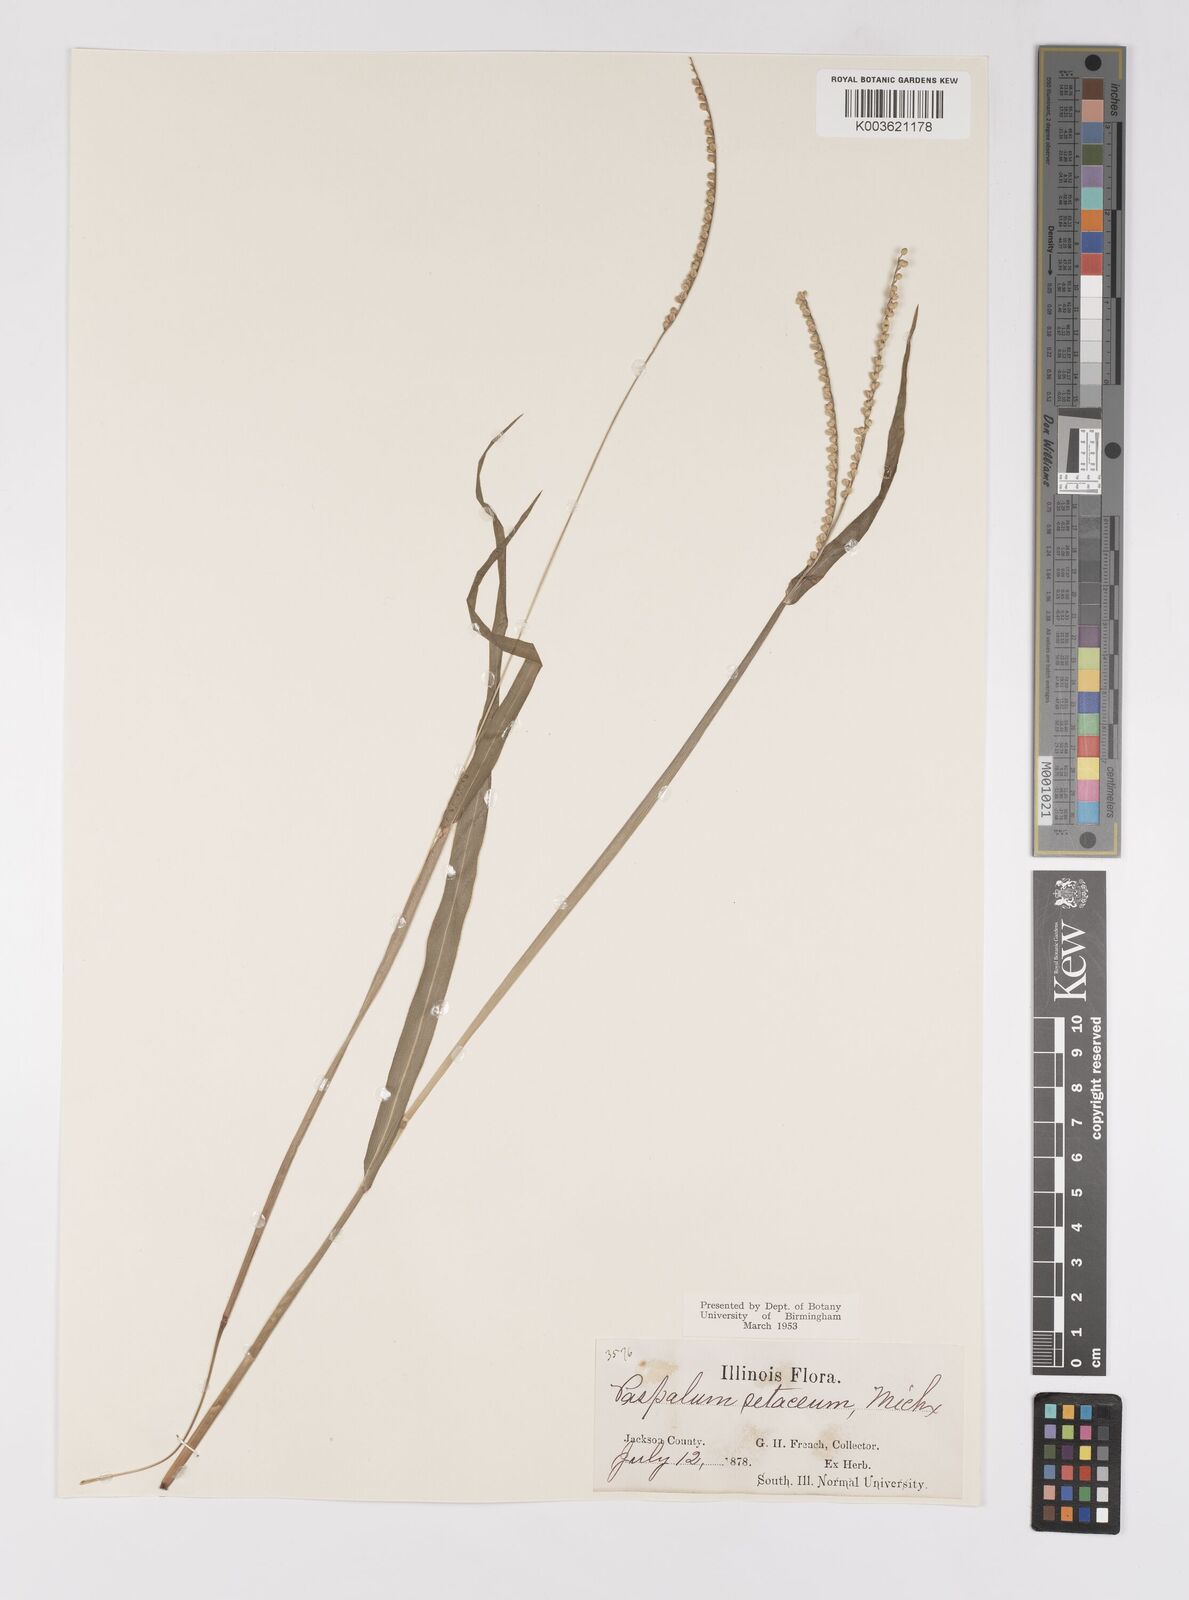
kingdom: Plantae
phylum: Tracheophyta
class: Liliopsida
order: Poales
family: Poaceae
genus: Paspalum
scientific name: Paspalum setaceum
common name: Slender paspalum
